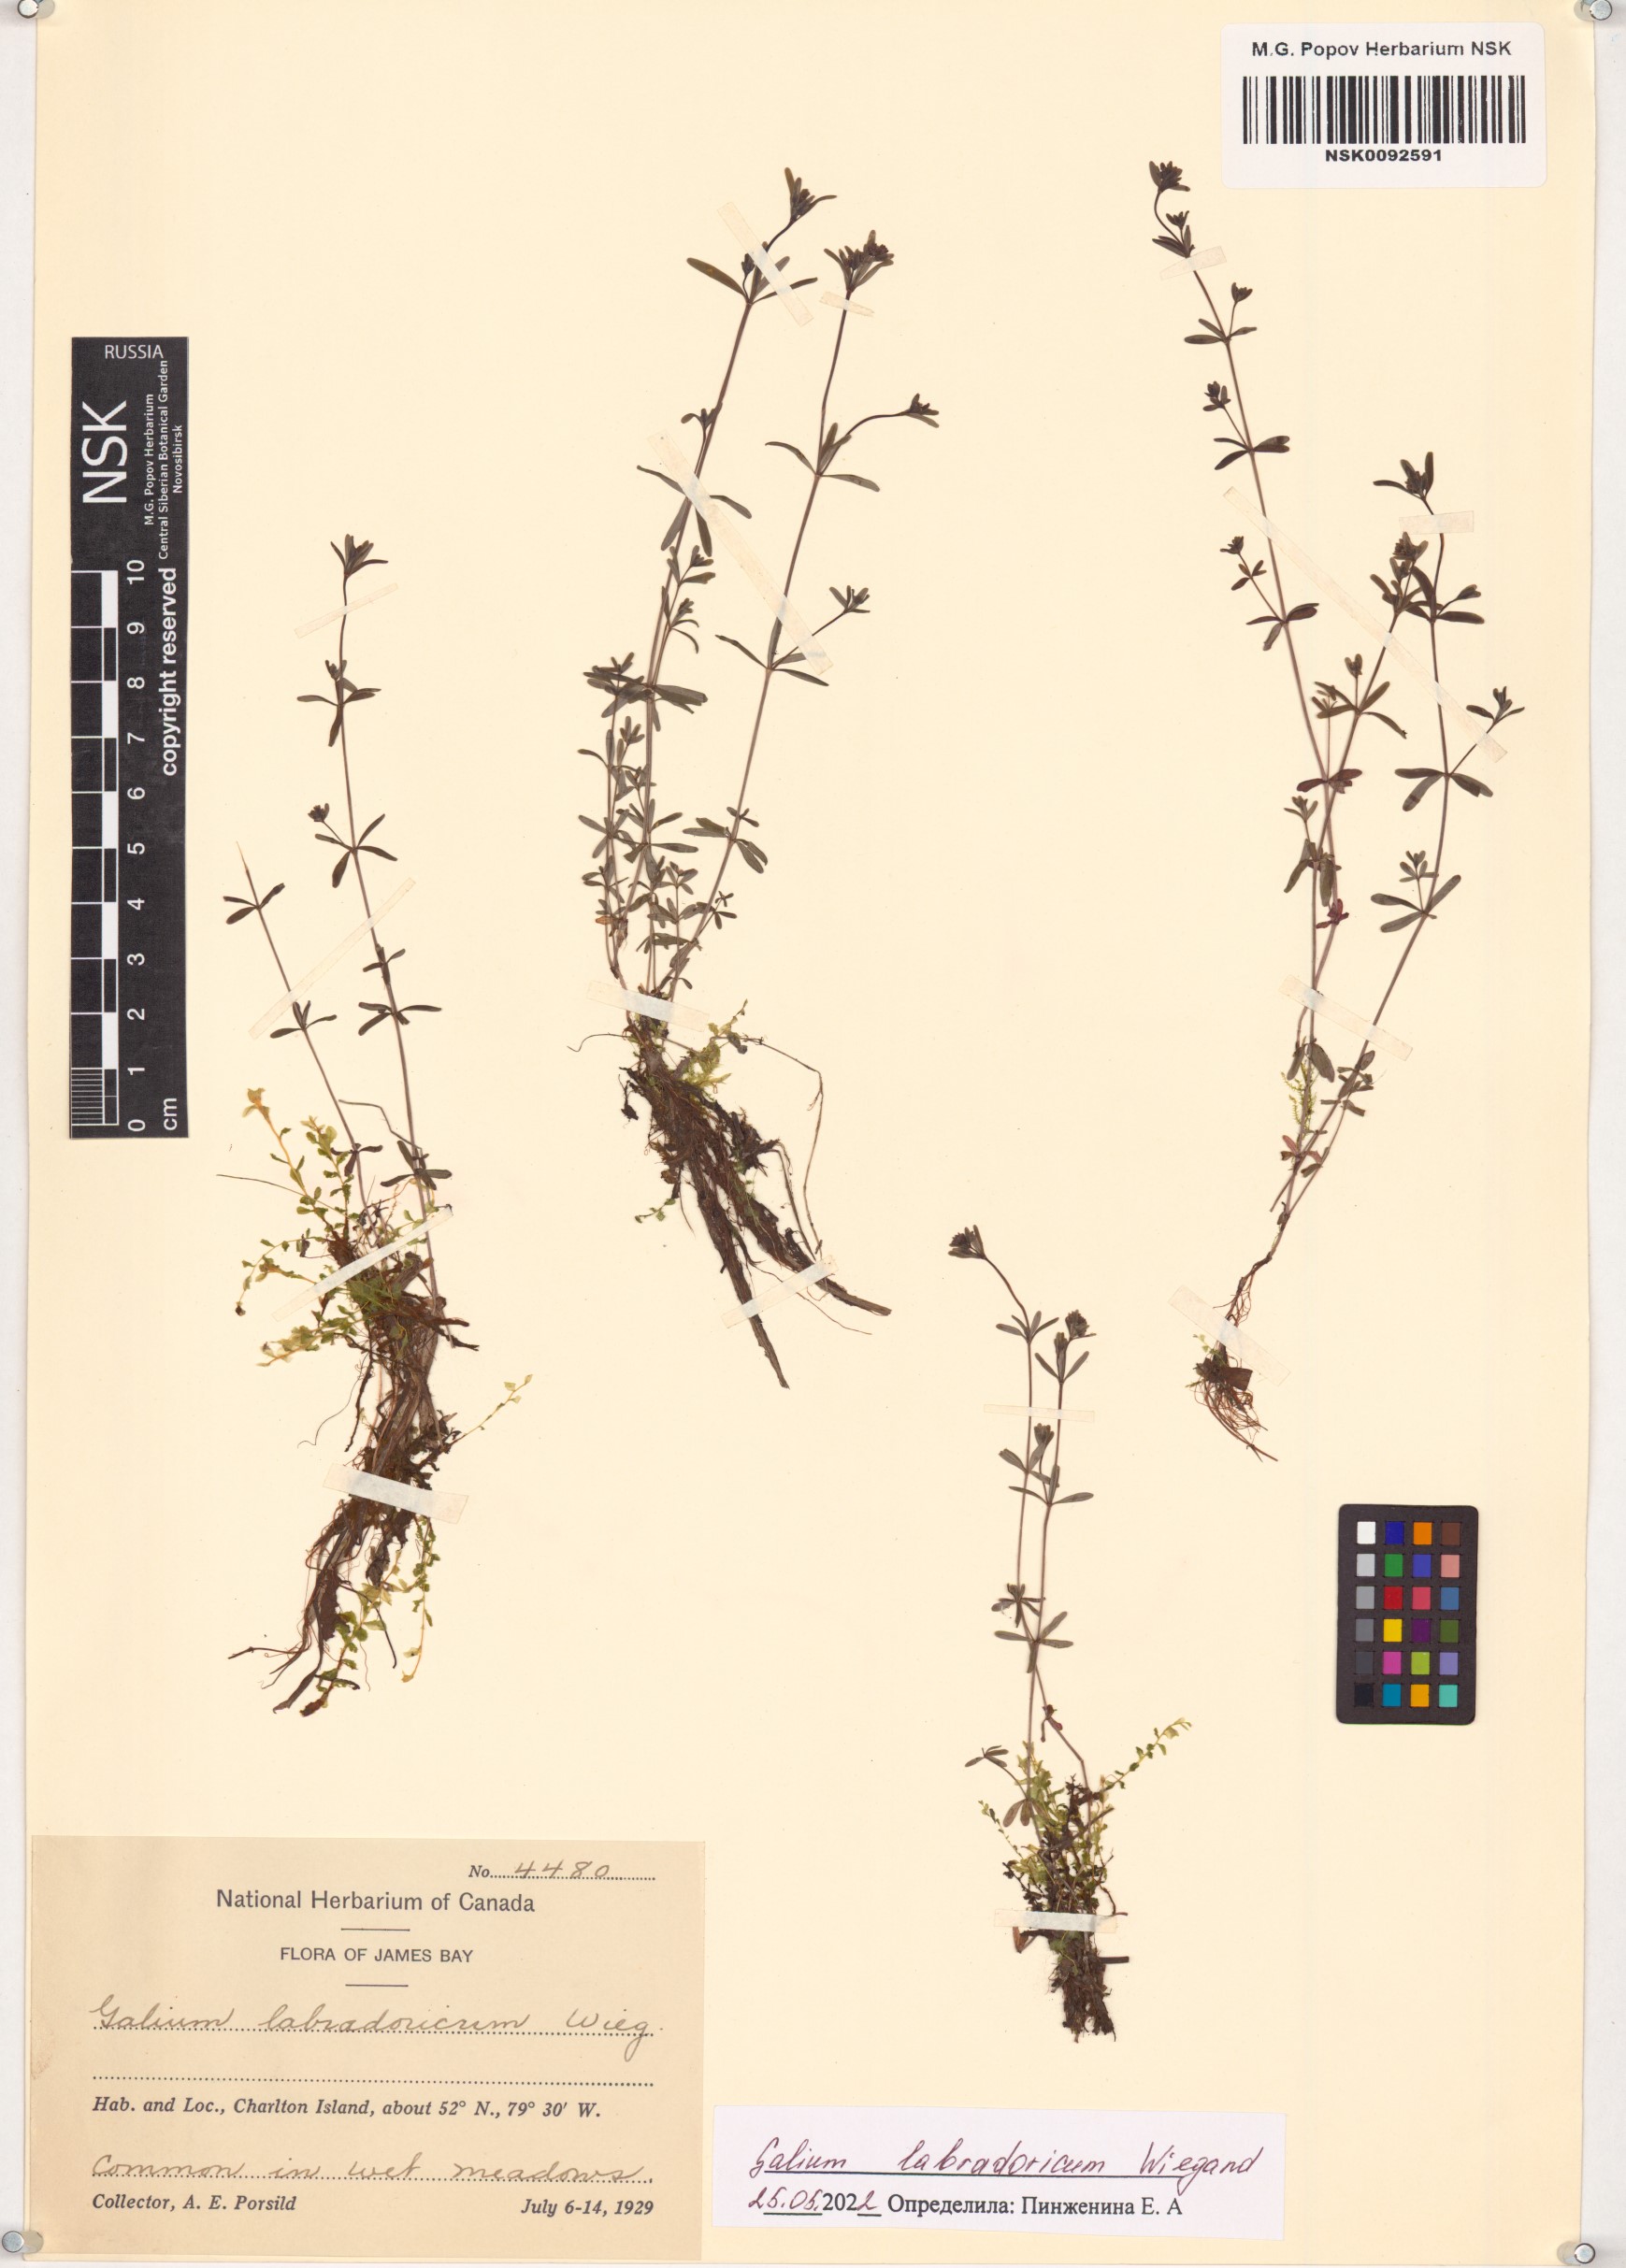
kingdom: Plantae
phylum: Tracheophyta
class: Magnoliopsida
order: Gentianales
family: Rubiaceae
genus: Galium
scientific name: Galium labradoricum
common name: Labrador bedstraw
